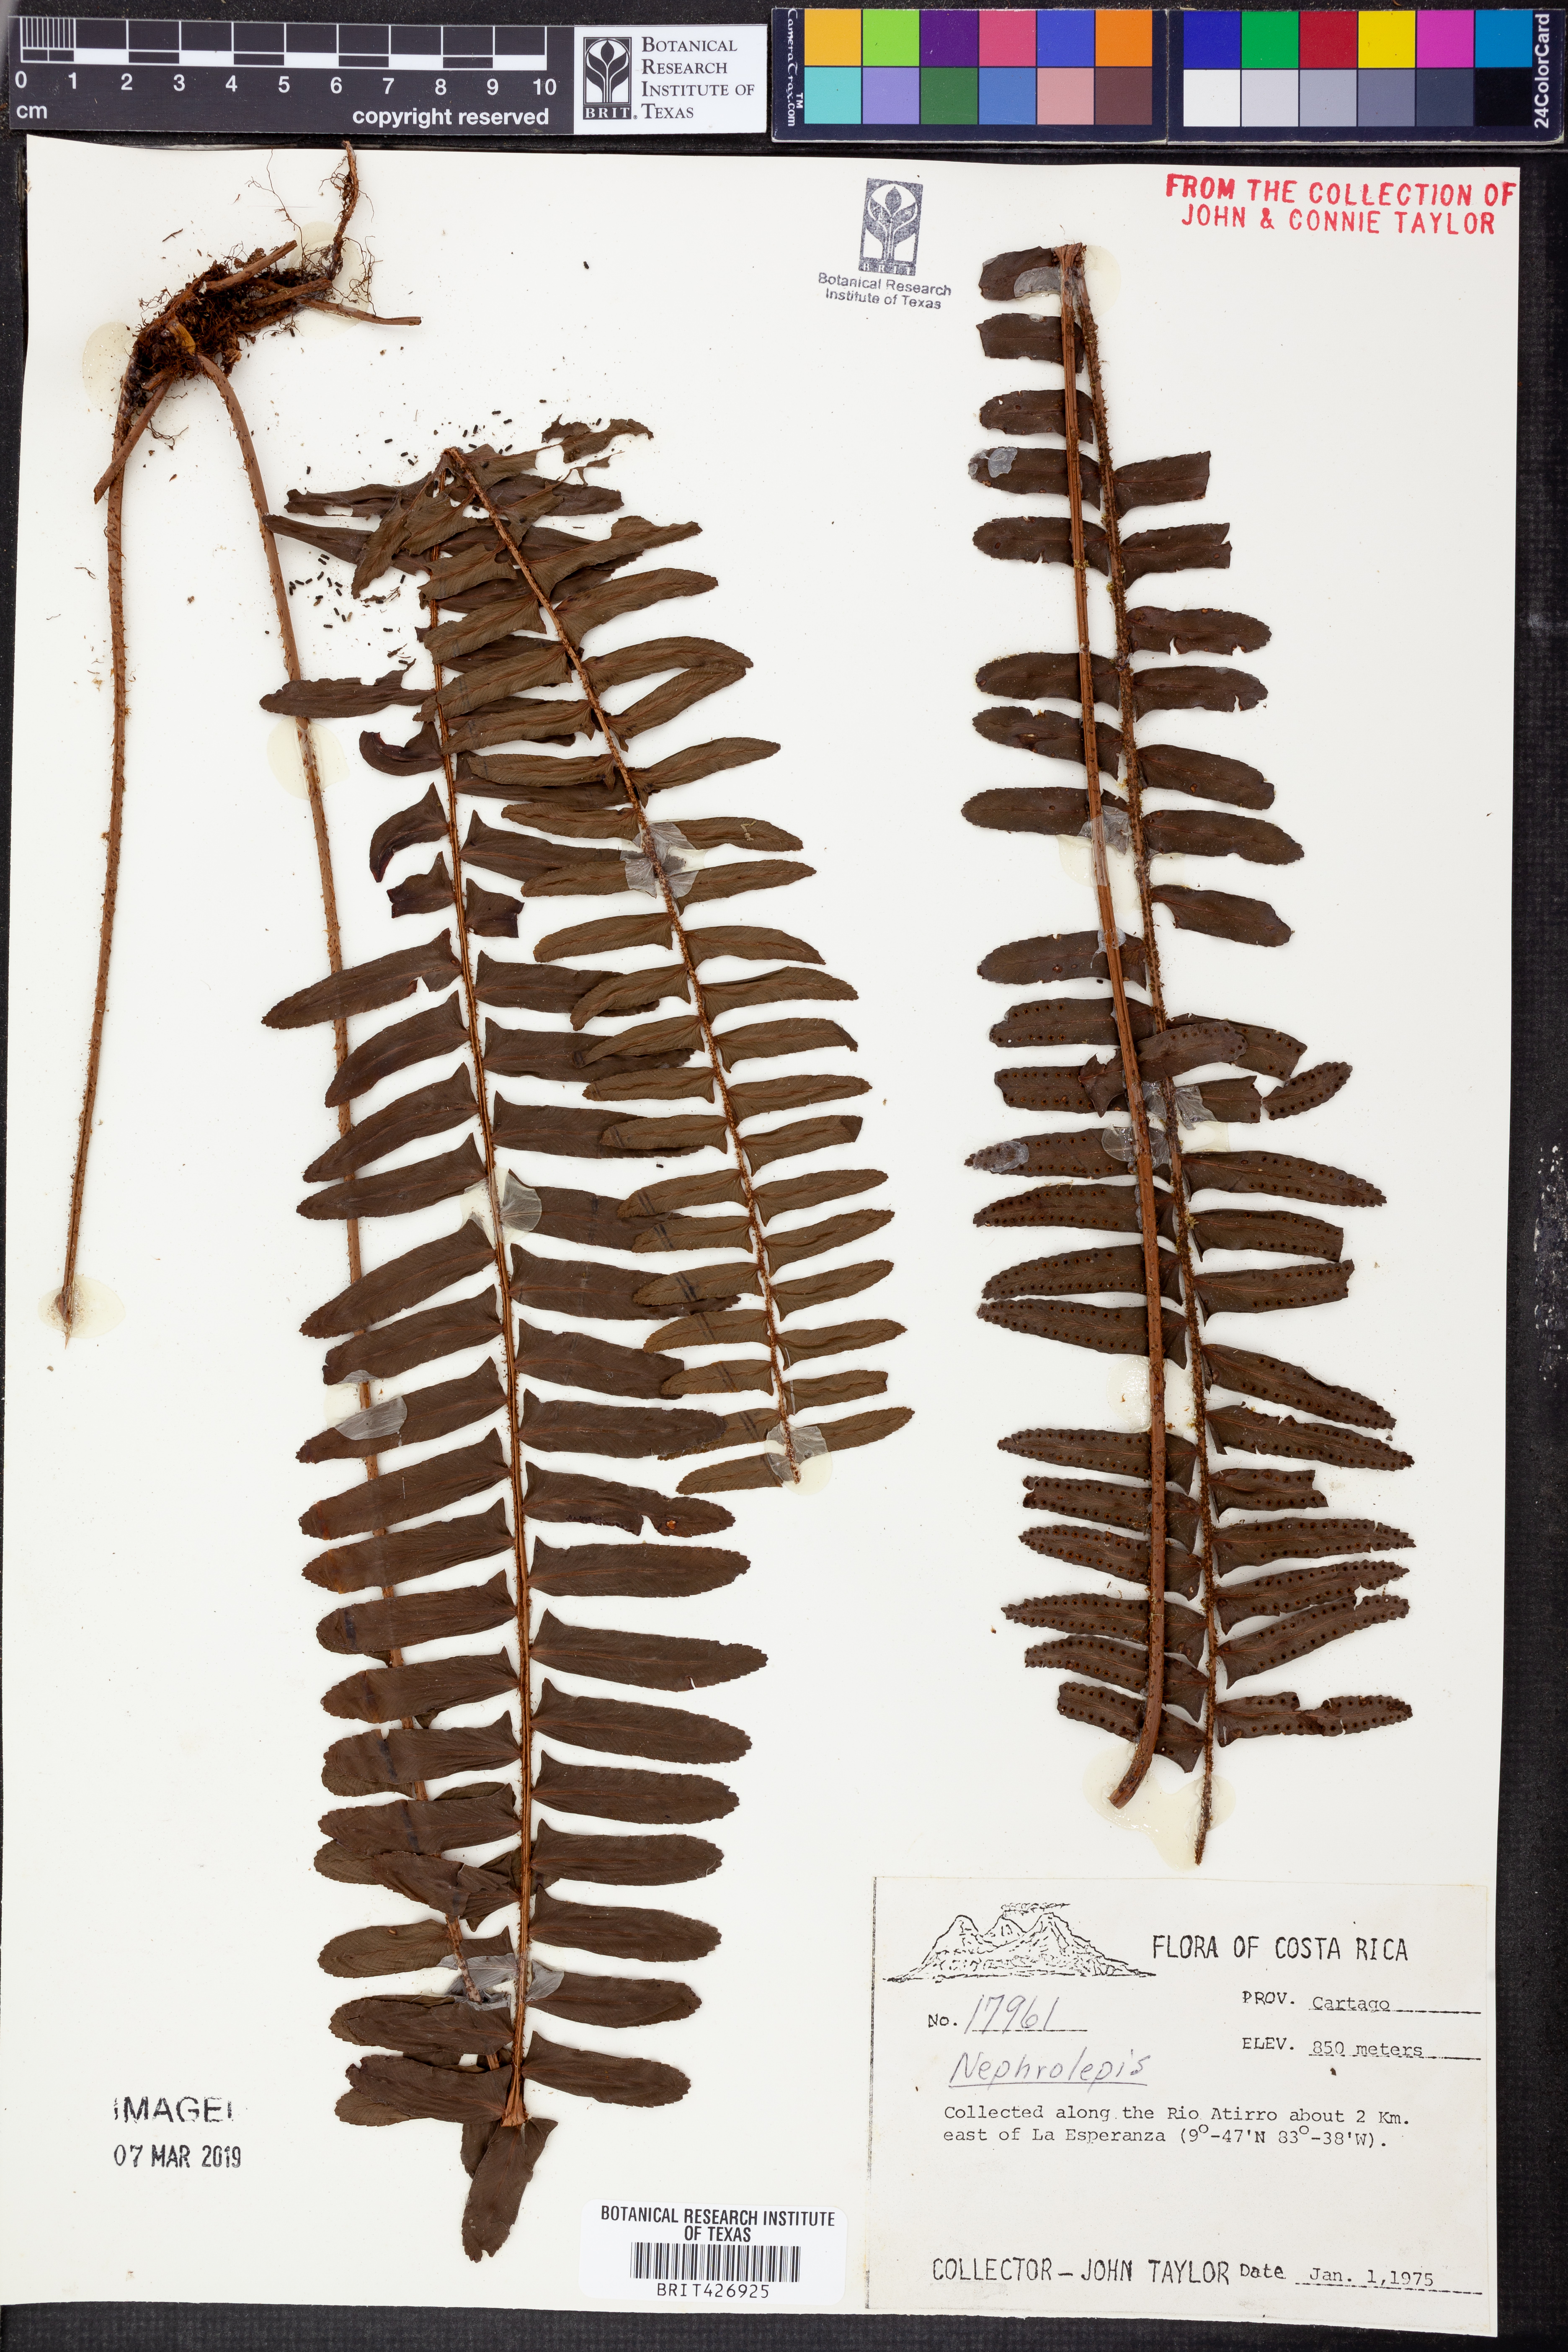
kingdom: Plantae
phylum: Tracheophyta
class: Polypodiopsida
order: Polypodiales
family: Nephrolepidaceae
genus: Nephrolepis
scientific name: Nephrolepis
